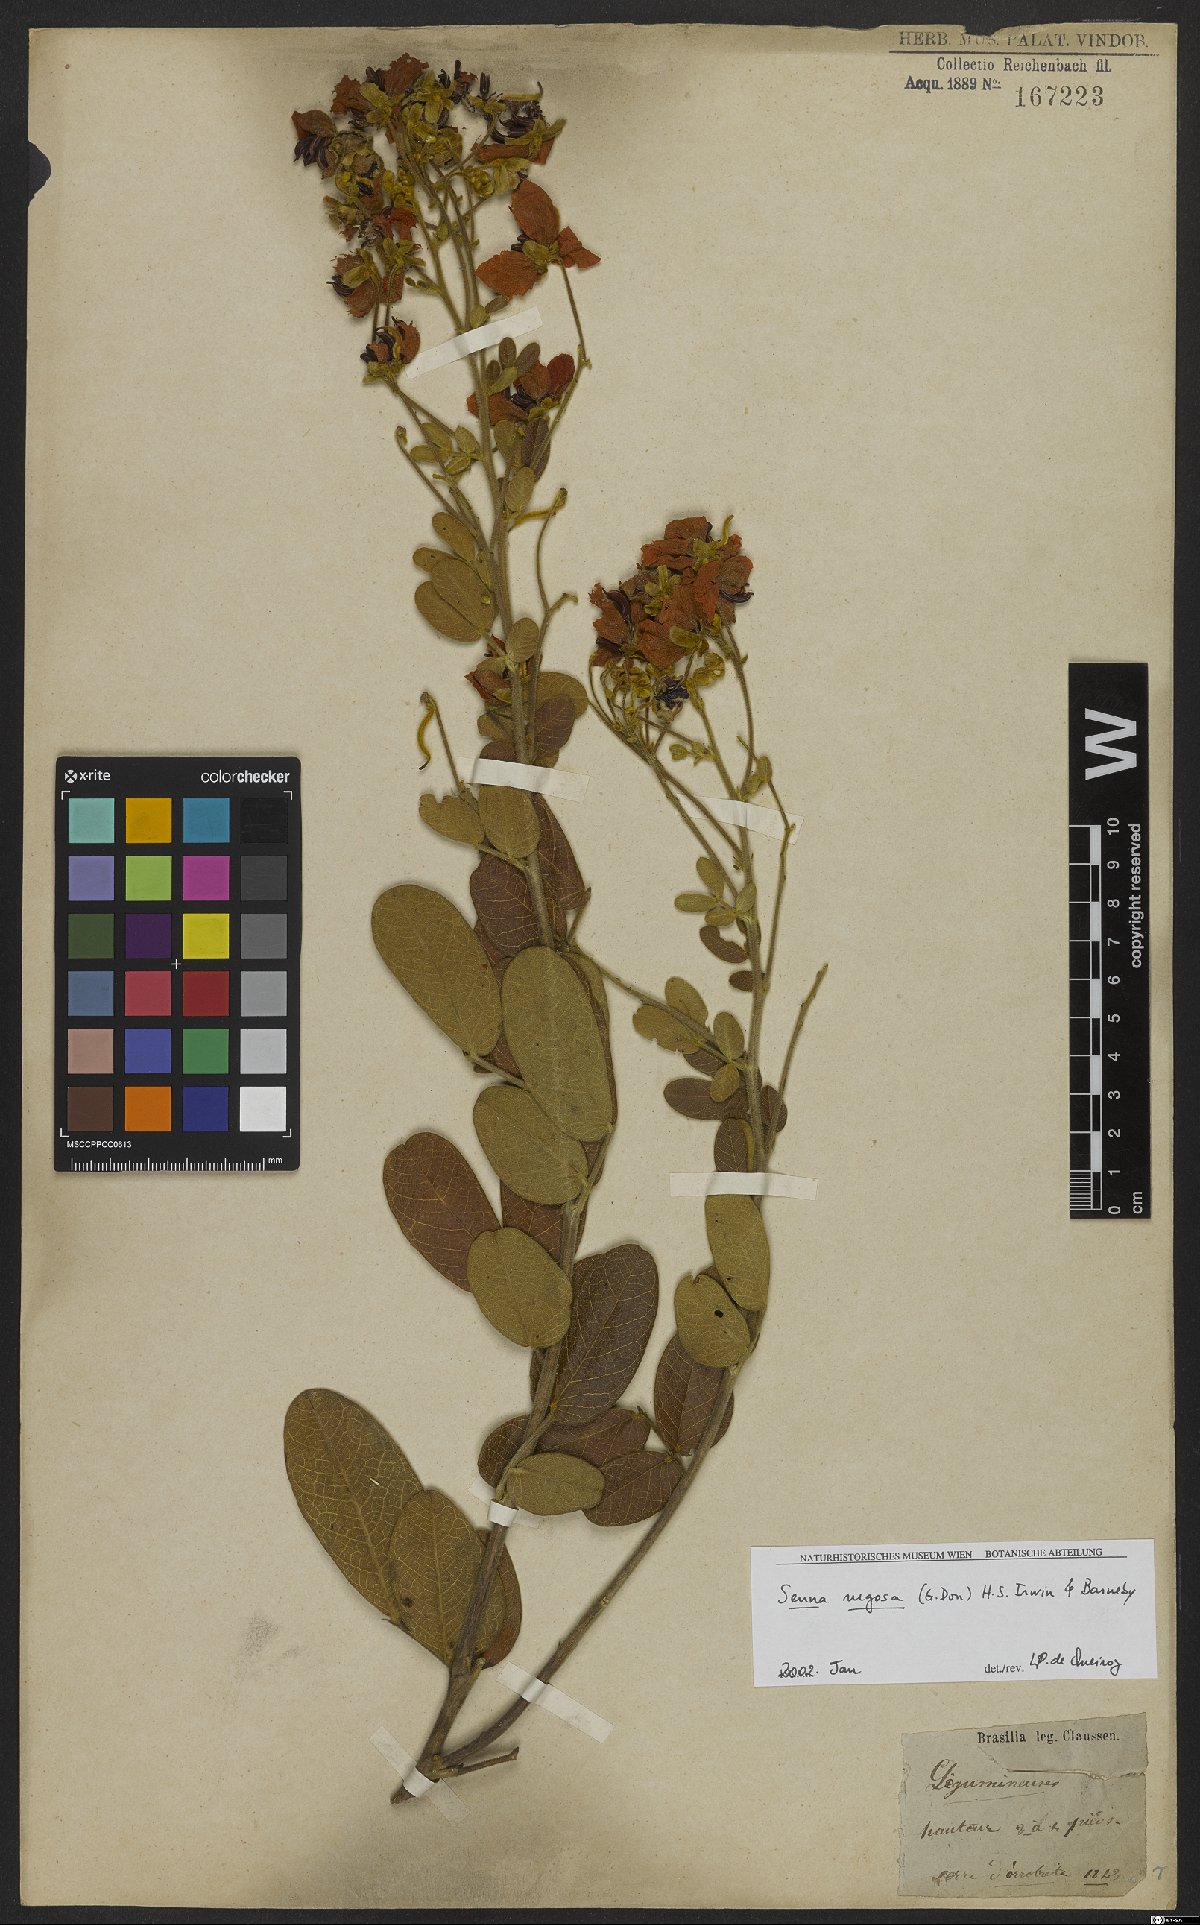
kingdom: Plantae
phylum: Tracheophyta
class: Magnoliopsida
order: Fabales
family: Fabaceae
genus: Senna
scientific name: Senna rugosa
